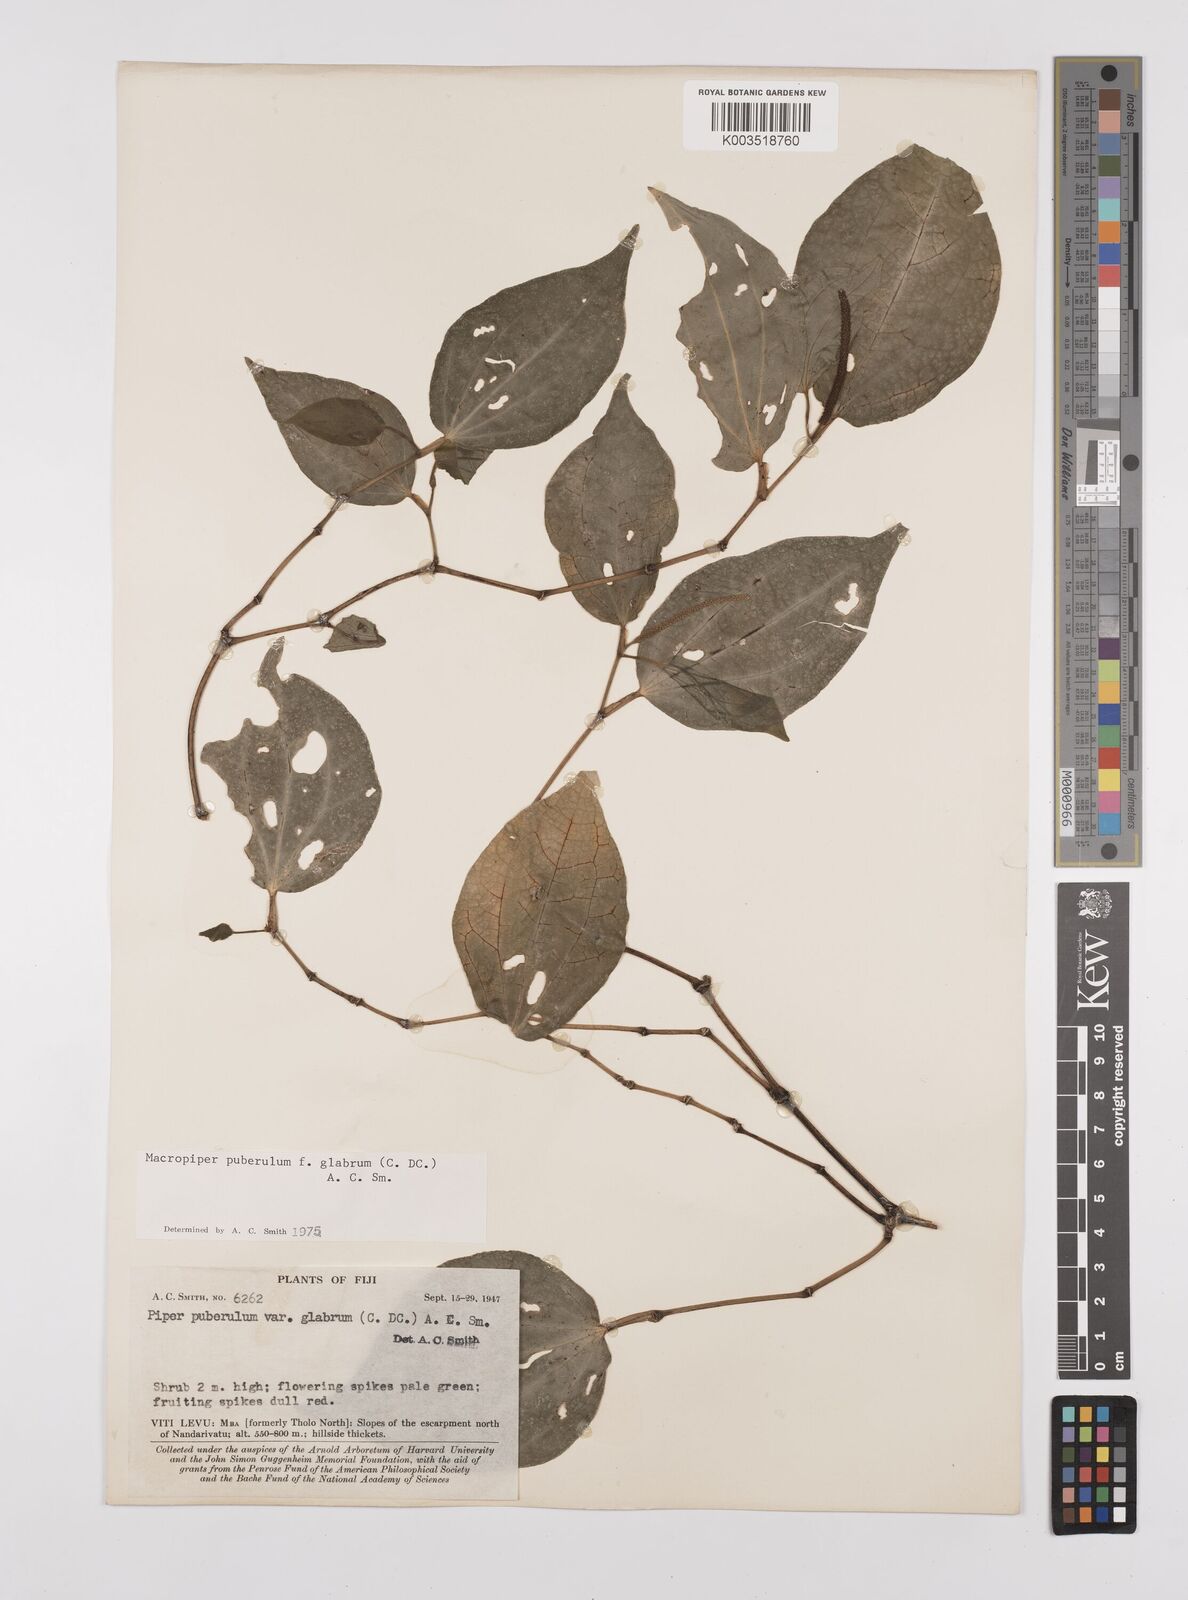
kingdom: Plantae
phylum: Tracheophyta
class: Magnoliopsida
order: Piperales
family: Piperaceae
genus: Macropiper
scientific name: Macropiper puberulum
